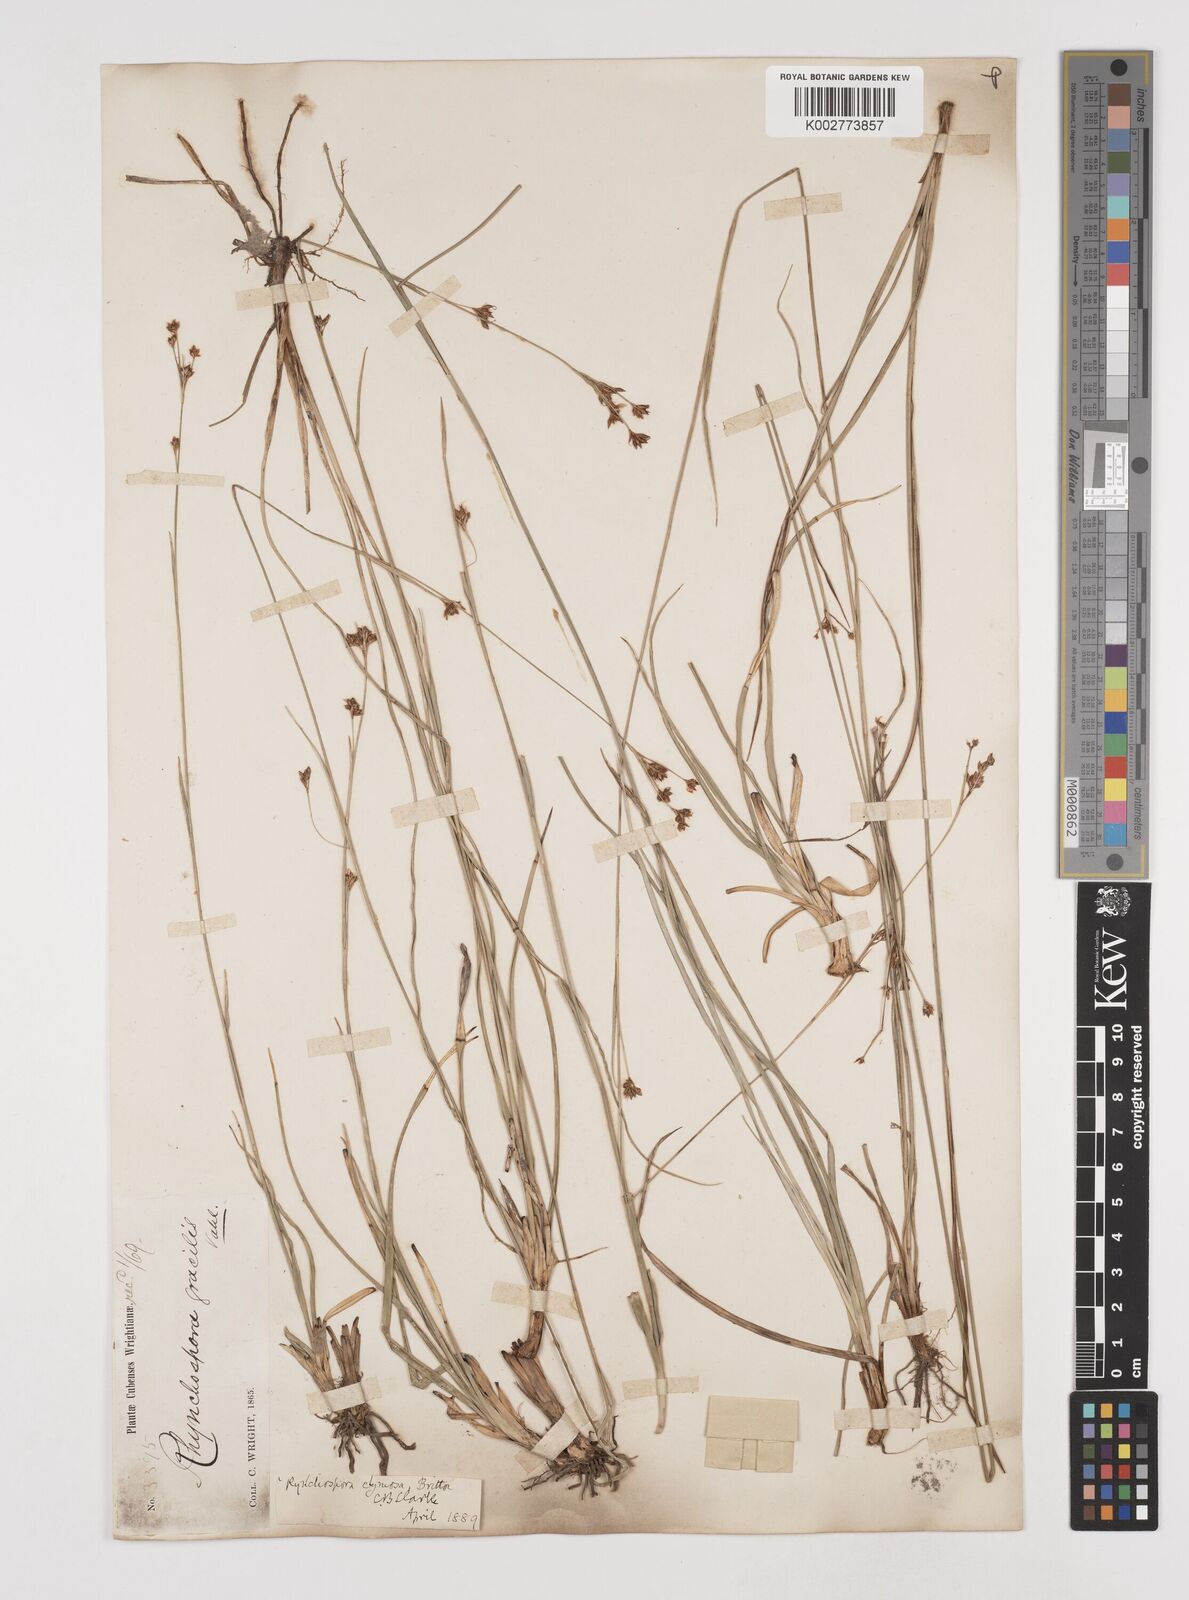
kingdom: Plantae
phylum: Tracheophyta
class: Liliopsida
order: Poales
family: Cyperaceae
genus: Rhynchospora
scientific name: Rhynchospora globularis
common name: Globe beaksedge
